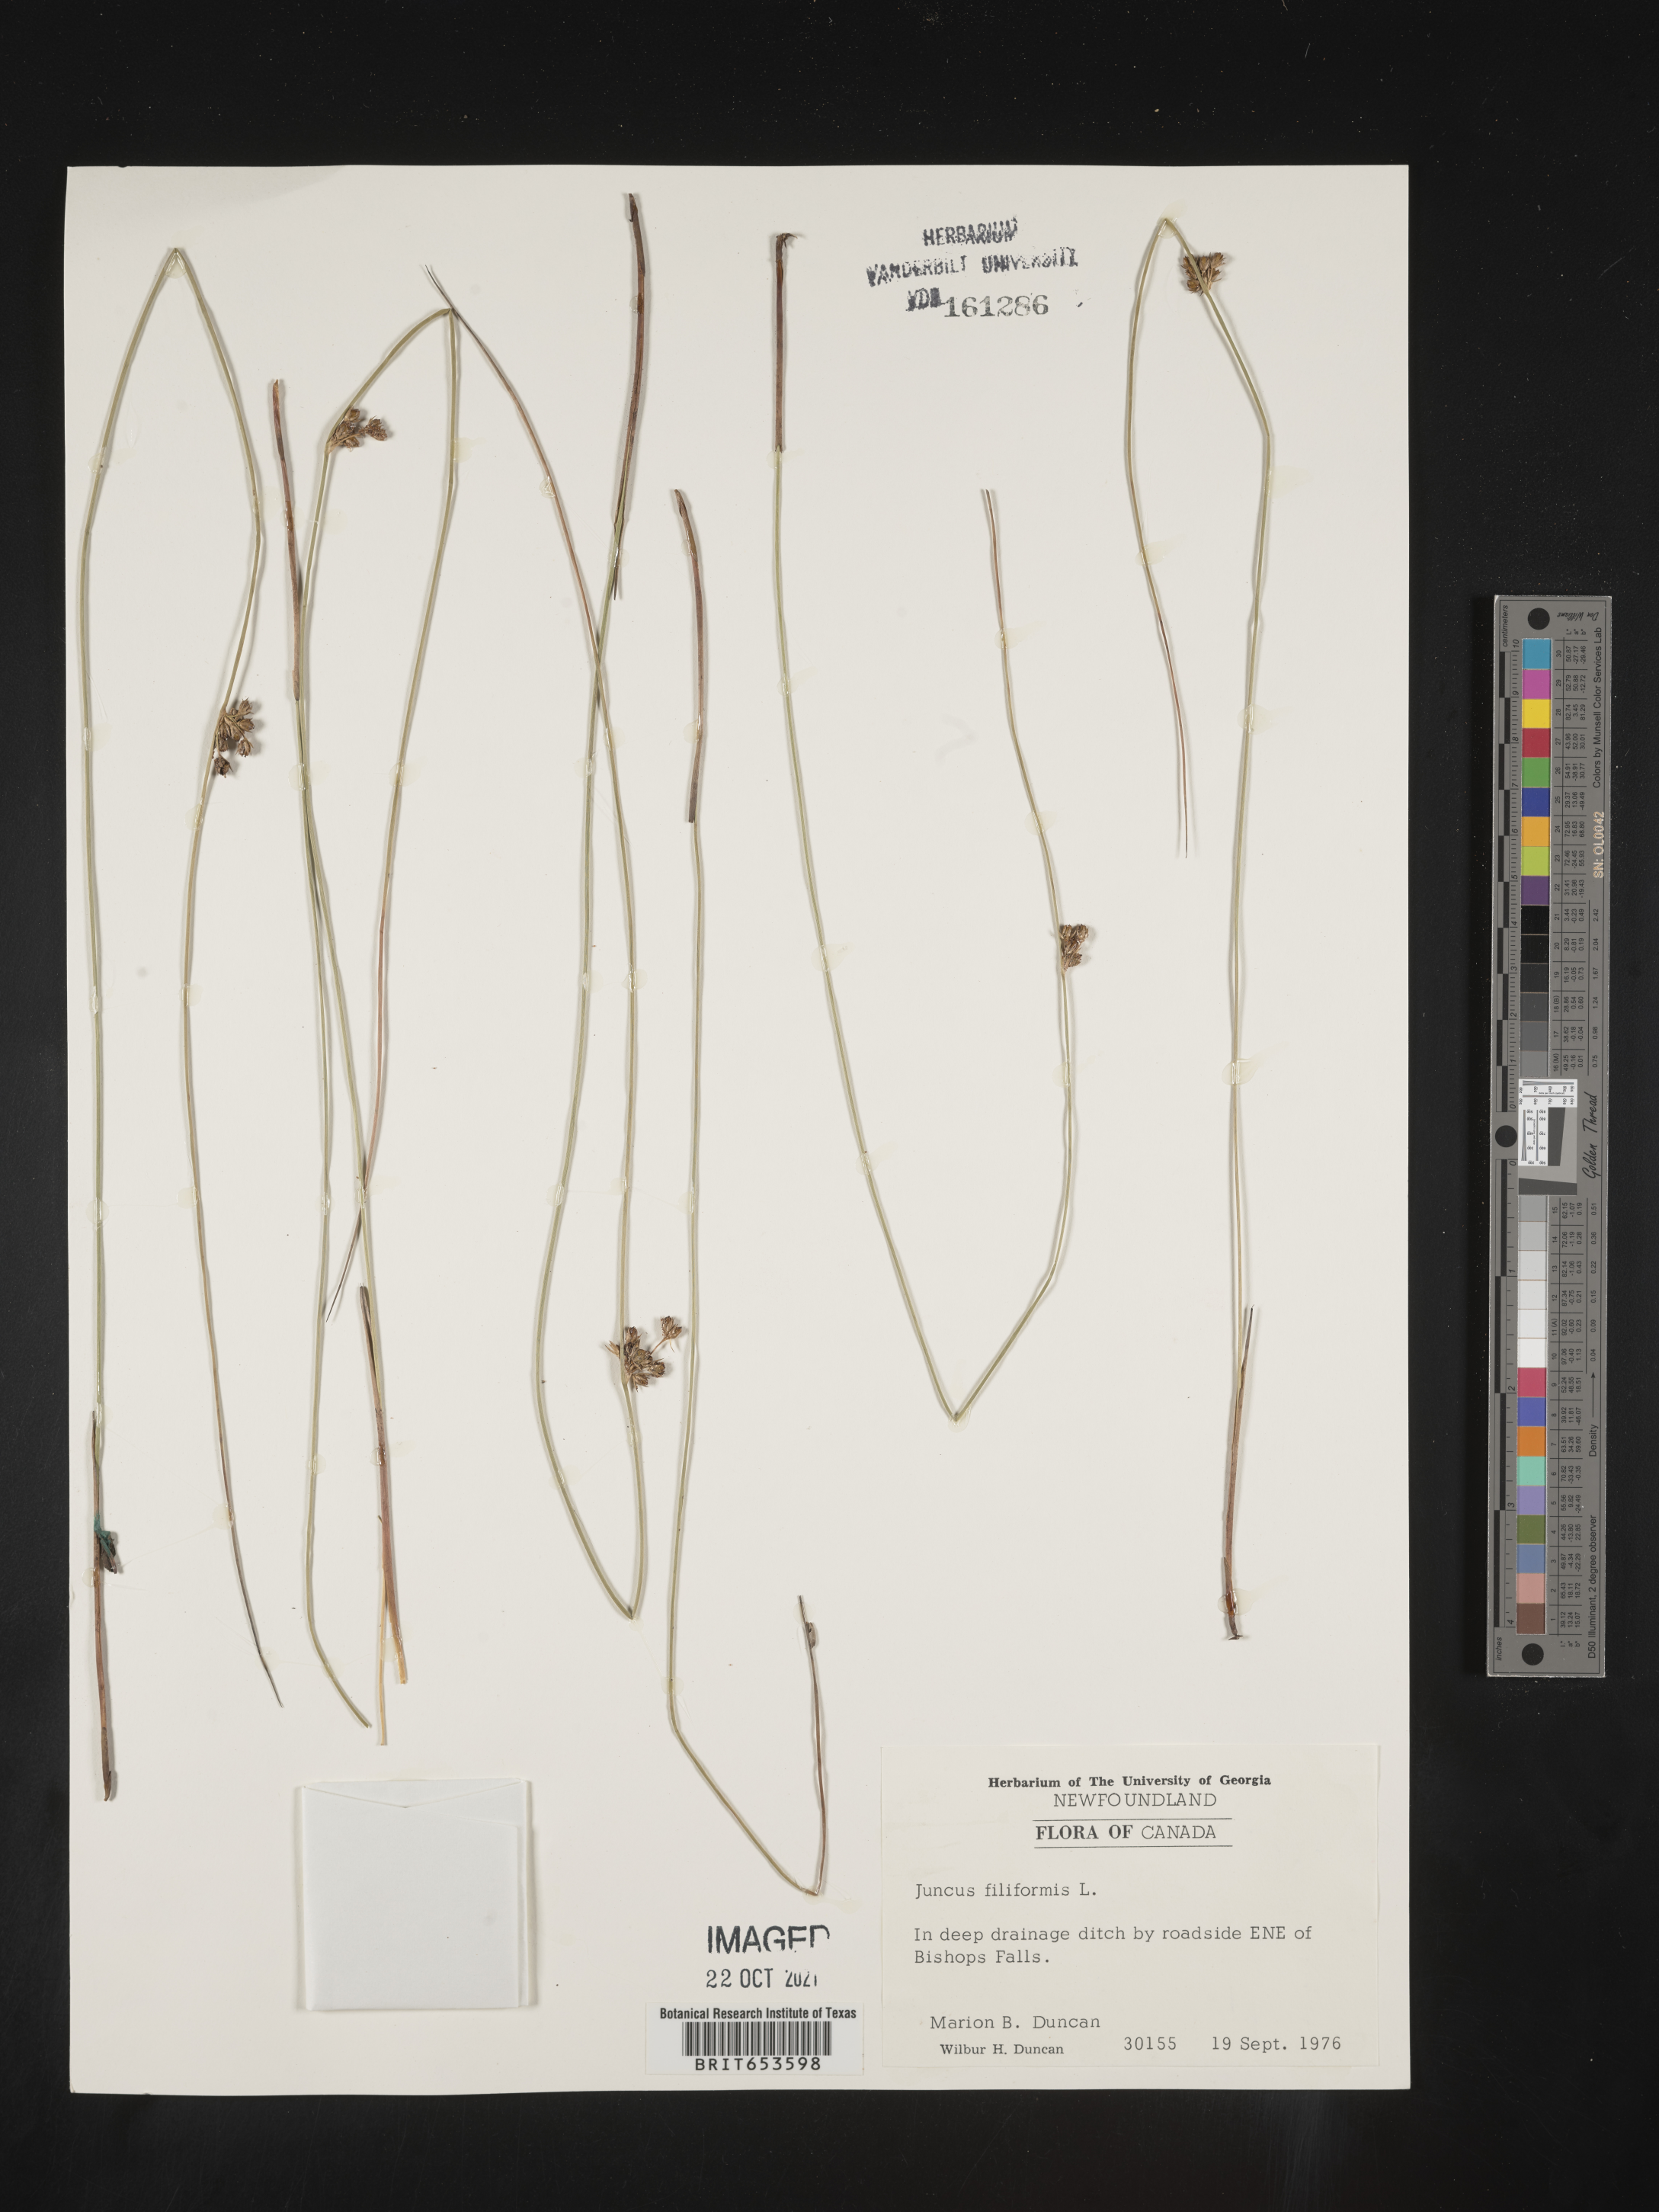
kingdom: Plantae
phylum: Tracheophyta
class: Liliopsida
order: Poales
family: Juncaceae
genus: Juncus
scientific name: Juncus
